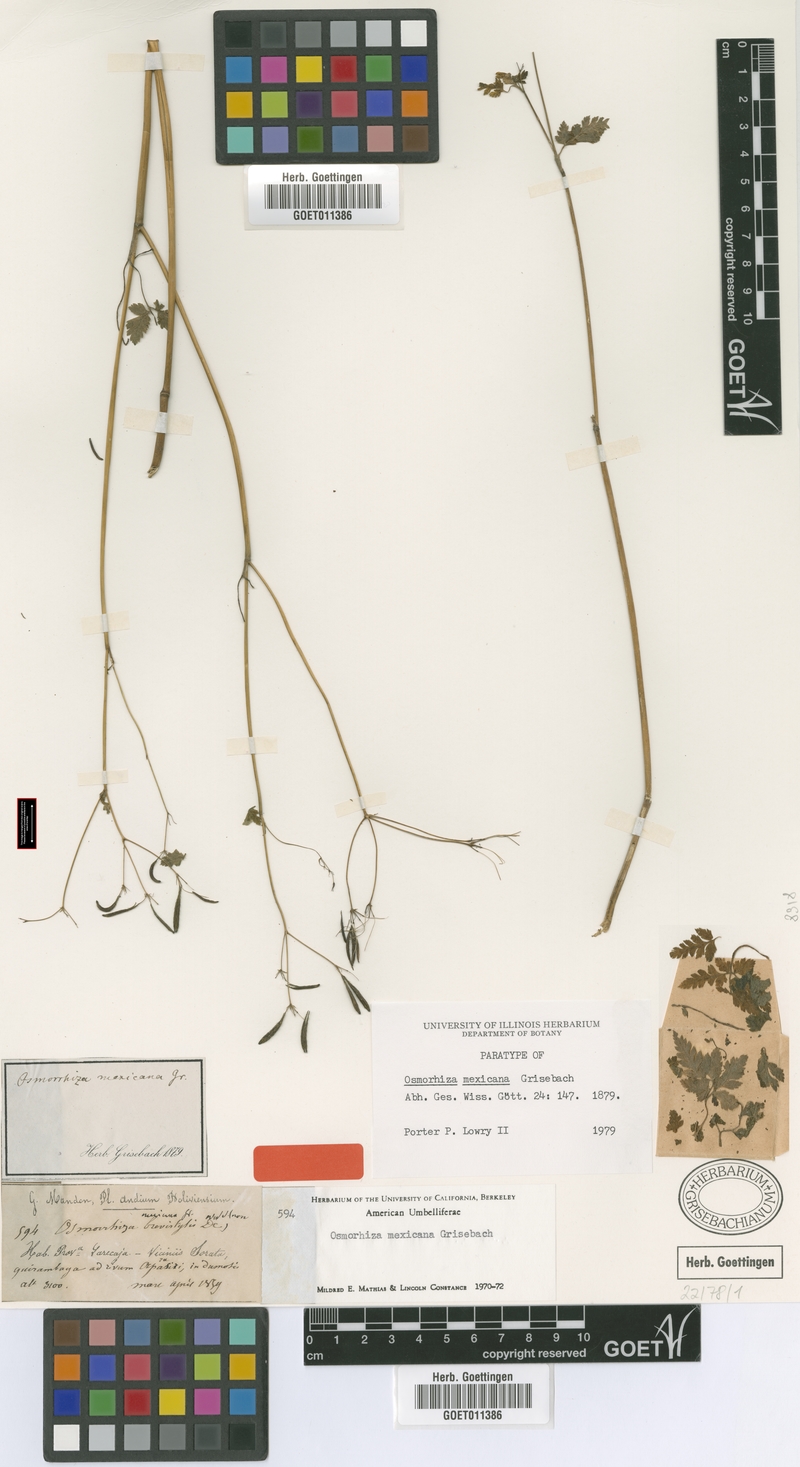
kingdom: Plantae
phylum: Tracheophyta
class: Magnoliopsida
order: Apiales
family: Apiaceae
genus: Osmorhiza
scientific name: Osmorhiza mexicana
